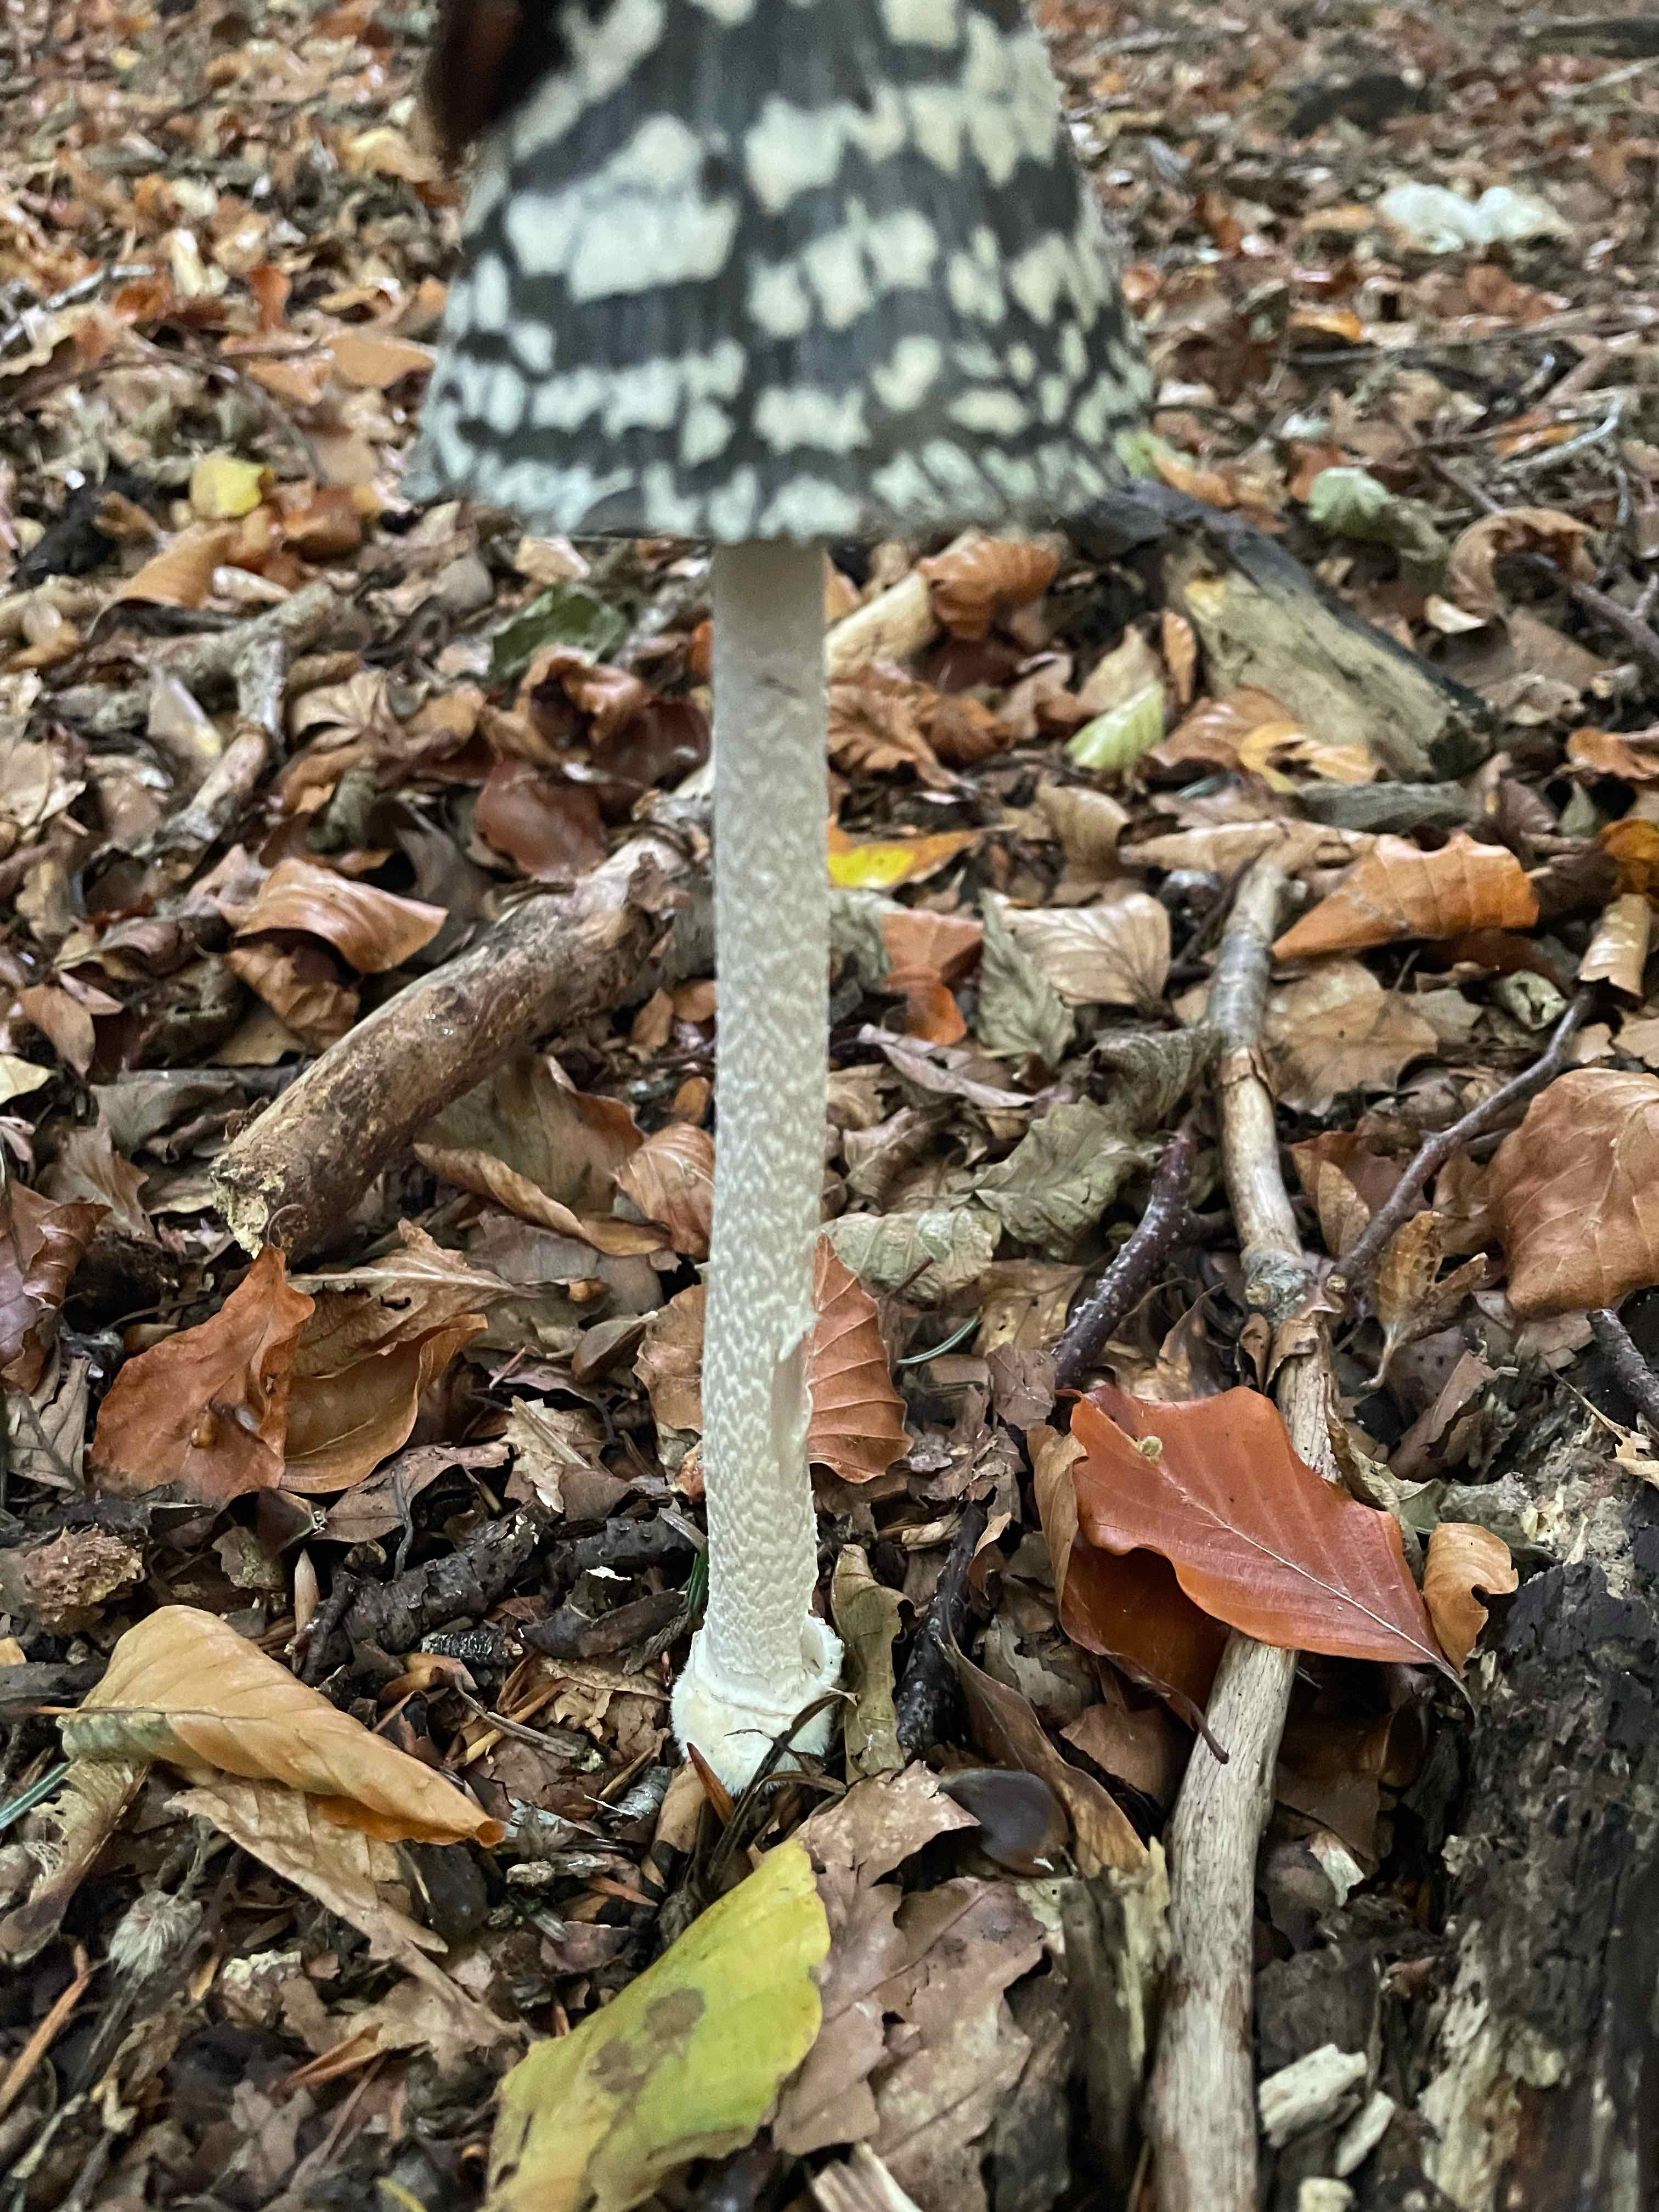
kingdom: Fungi
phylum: Basidiomycota
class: Agaricomycetes
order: Agaricales
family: Psathyrellaceae
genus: Coprinopsis
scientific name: Coprinopsis picacea
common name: skade-blækhat
